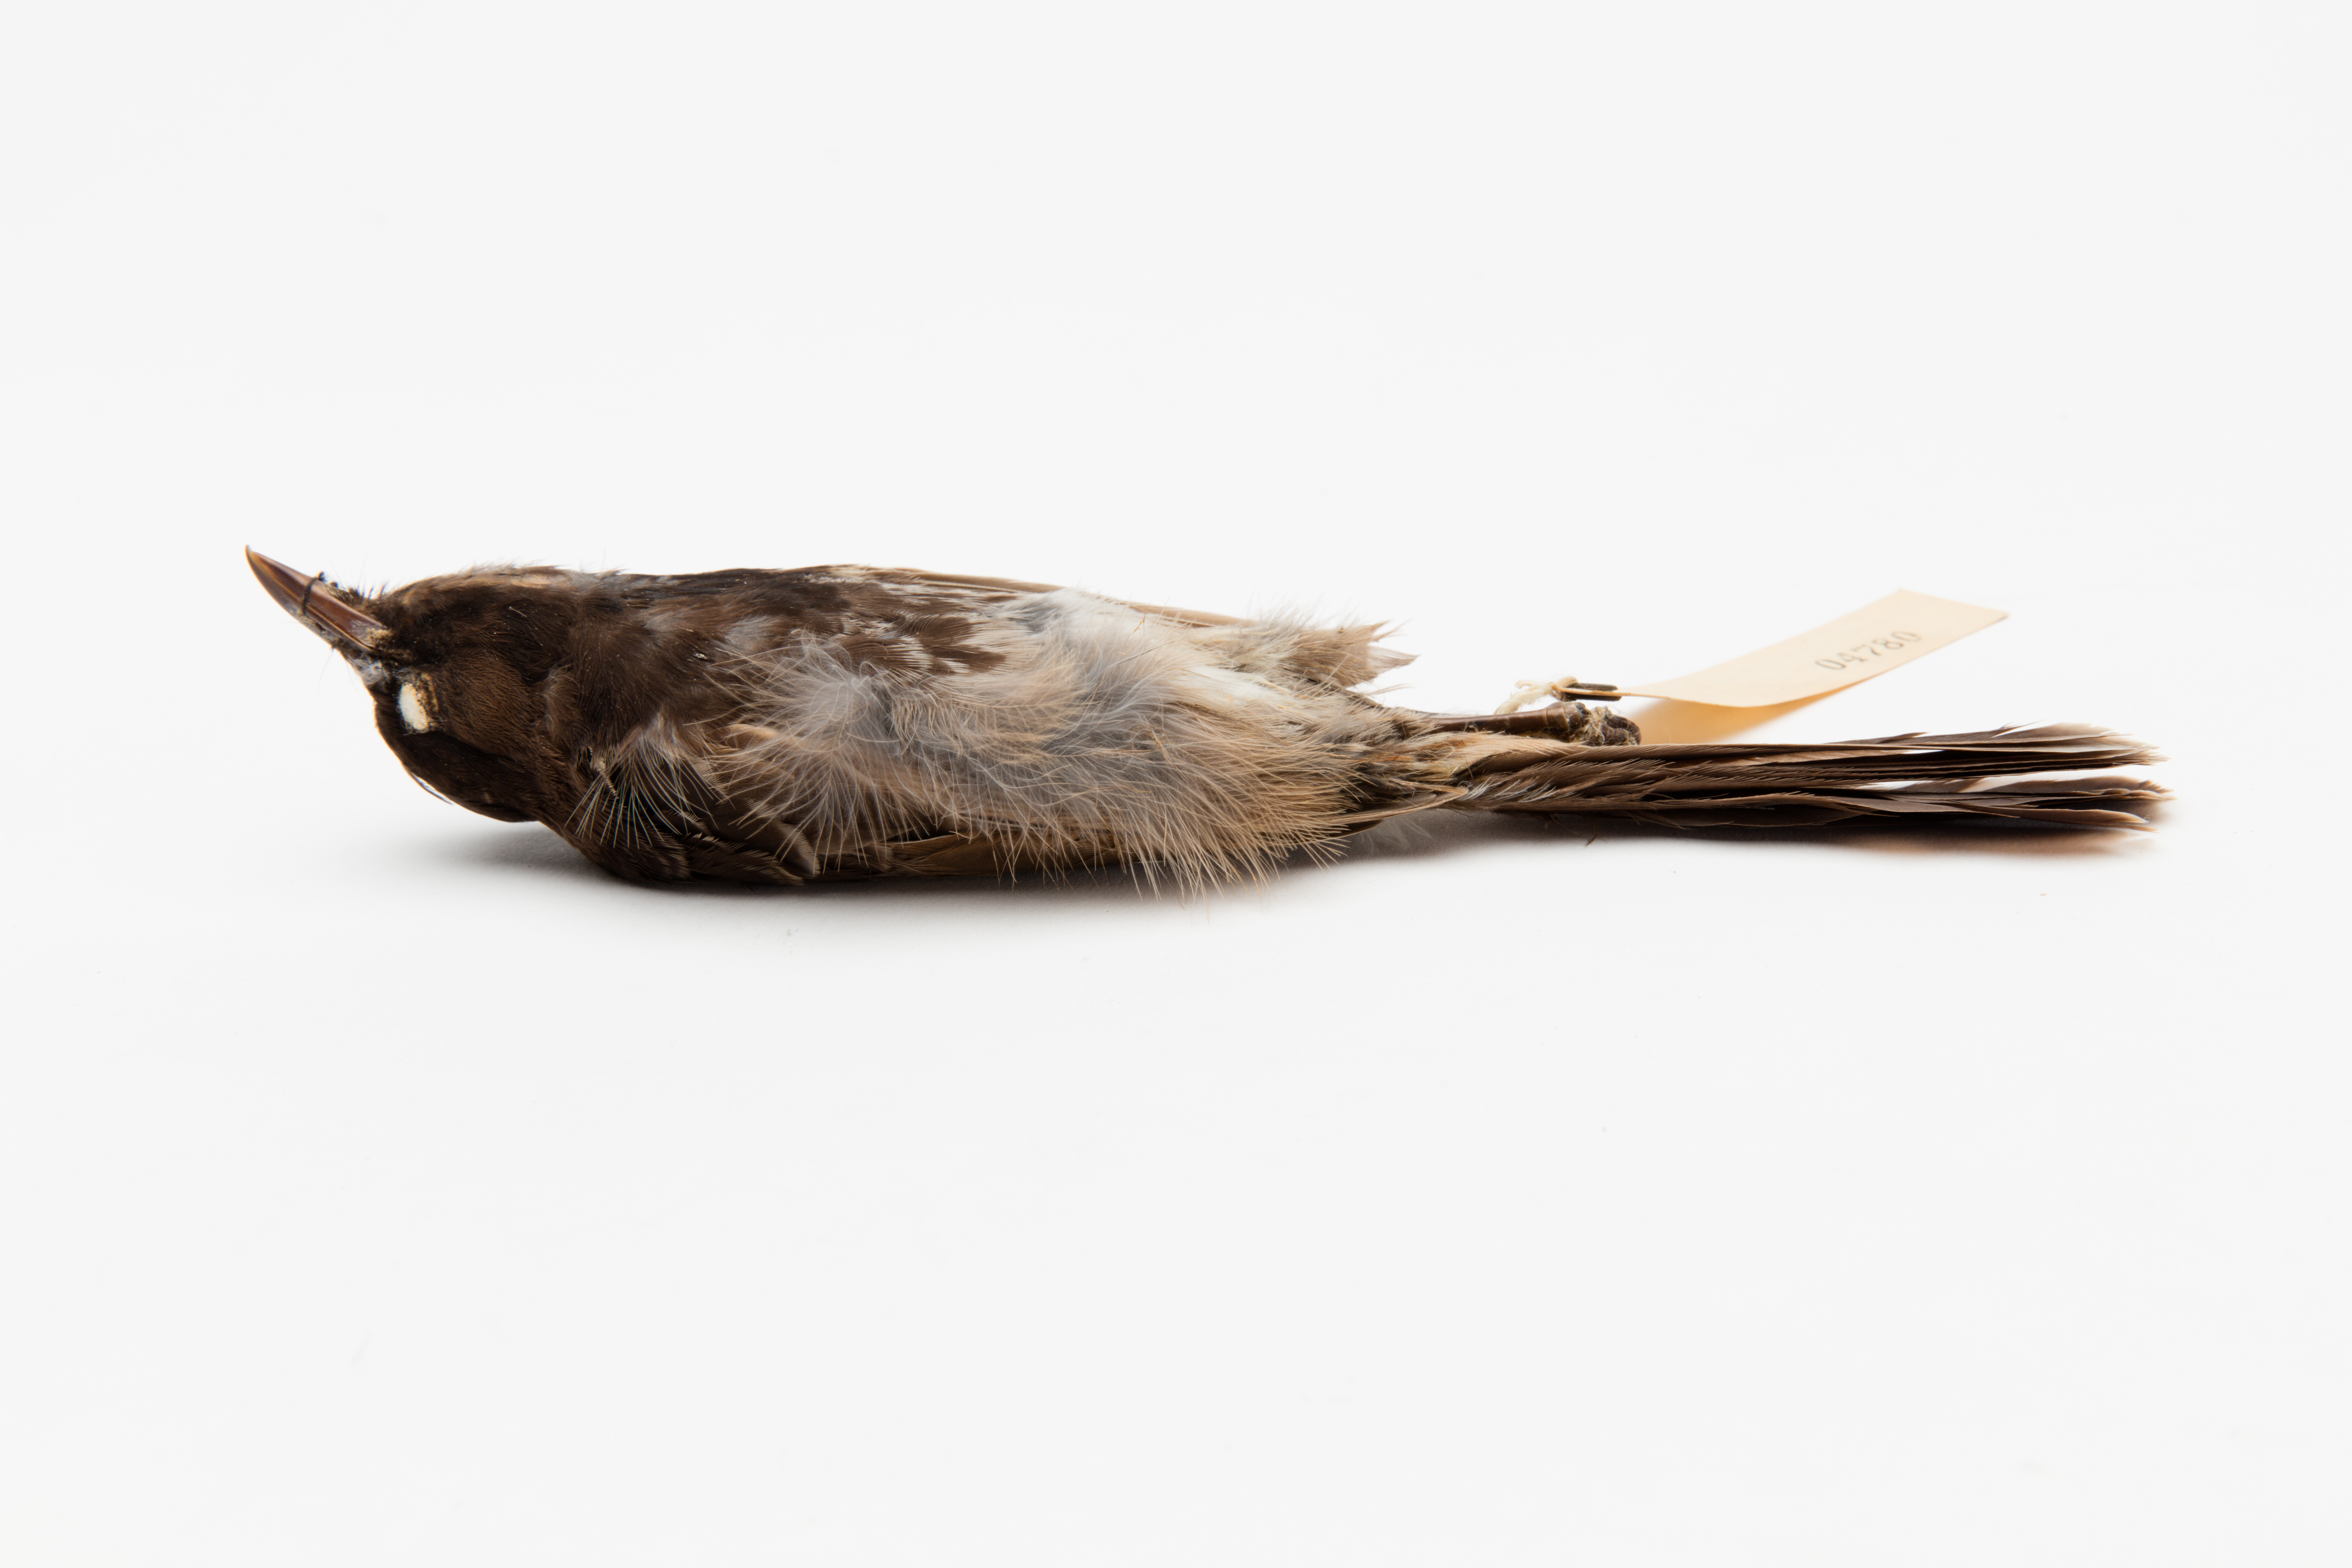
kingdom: Animalia
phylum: Chordata
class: Aves
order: Passeriformes
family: Pycnonotidae
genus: Pycnonotus
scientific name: Pycnonotus cafer
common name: Red-vented bulbul
